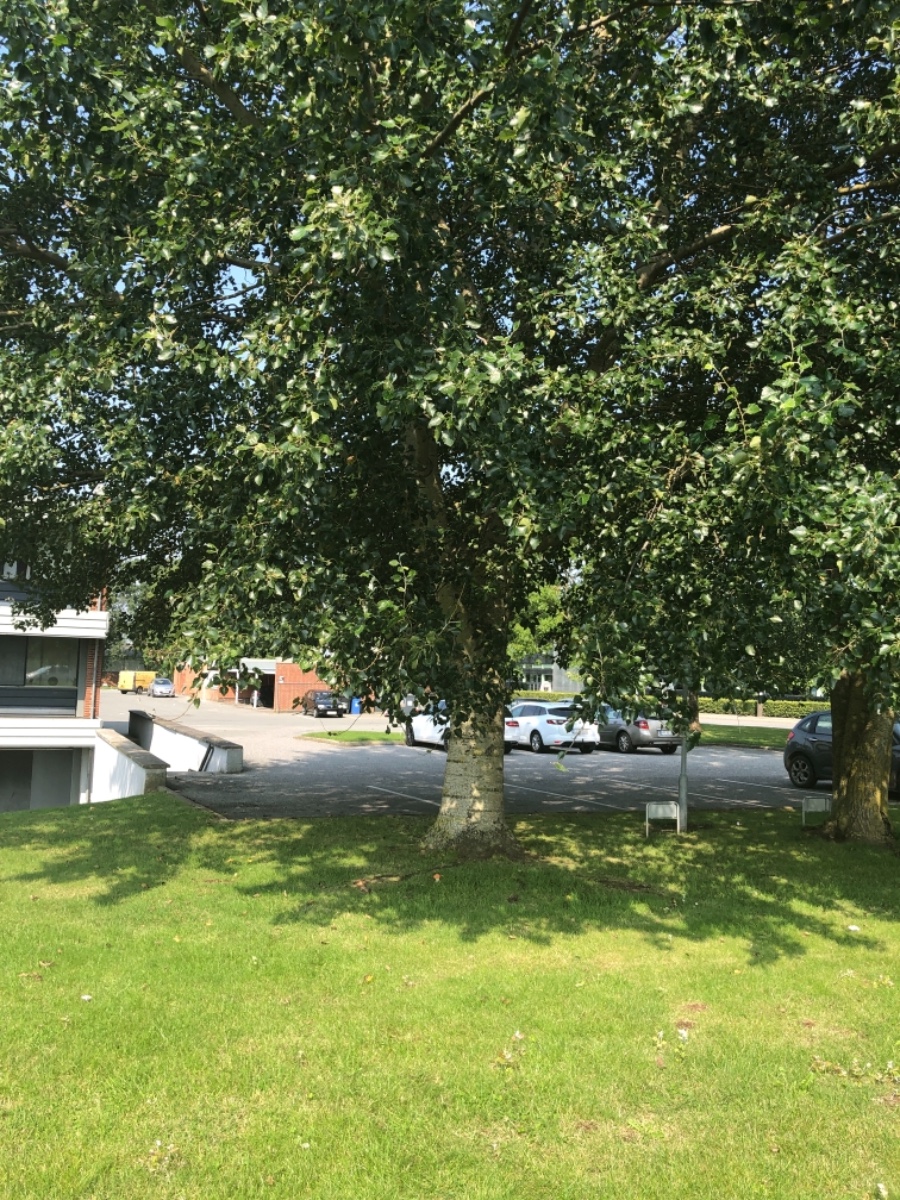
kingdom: Fungi
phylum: Basidiomycota
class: Agaricomycetes
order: Boletales
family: Boletaceae
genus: Leccinum
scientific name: Leccinum albostipitatum
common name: aspe-skælrørhat
